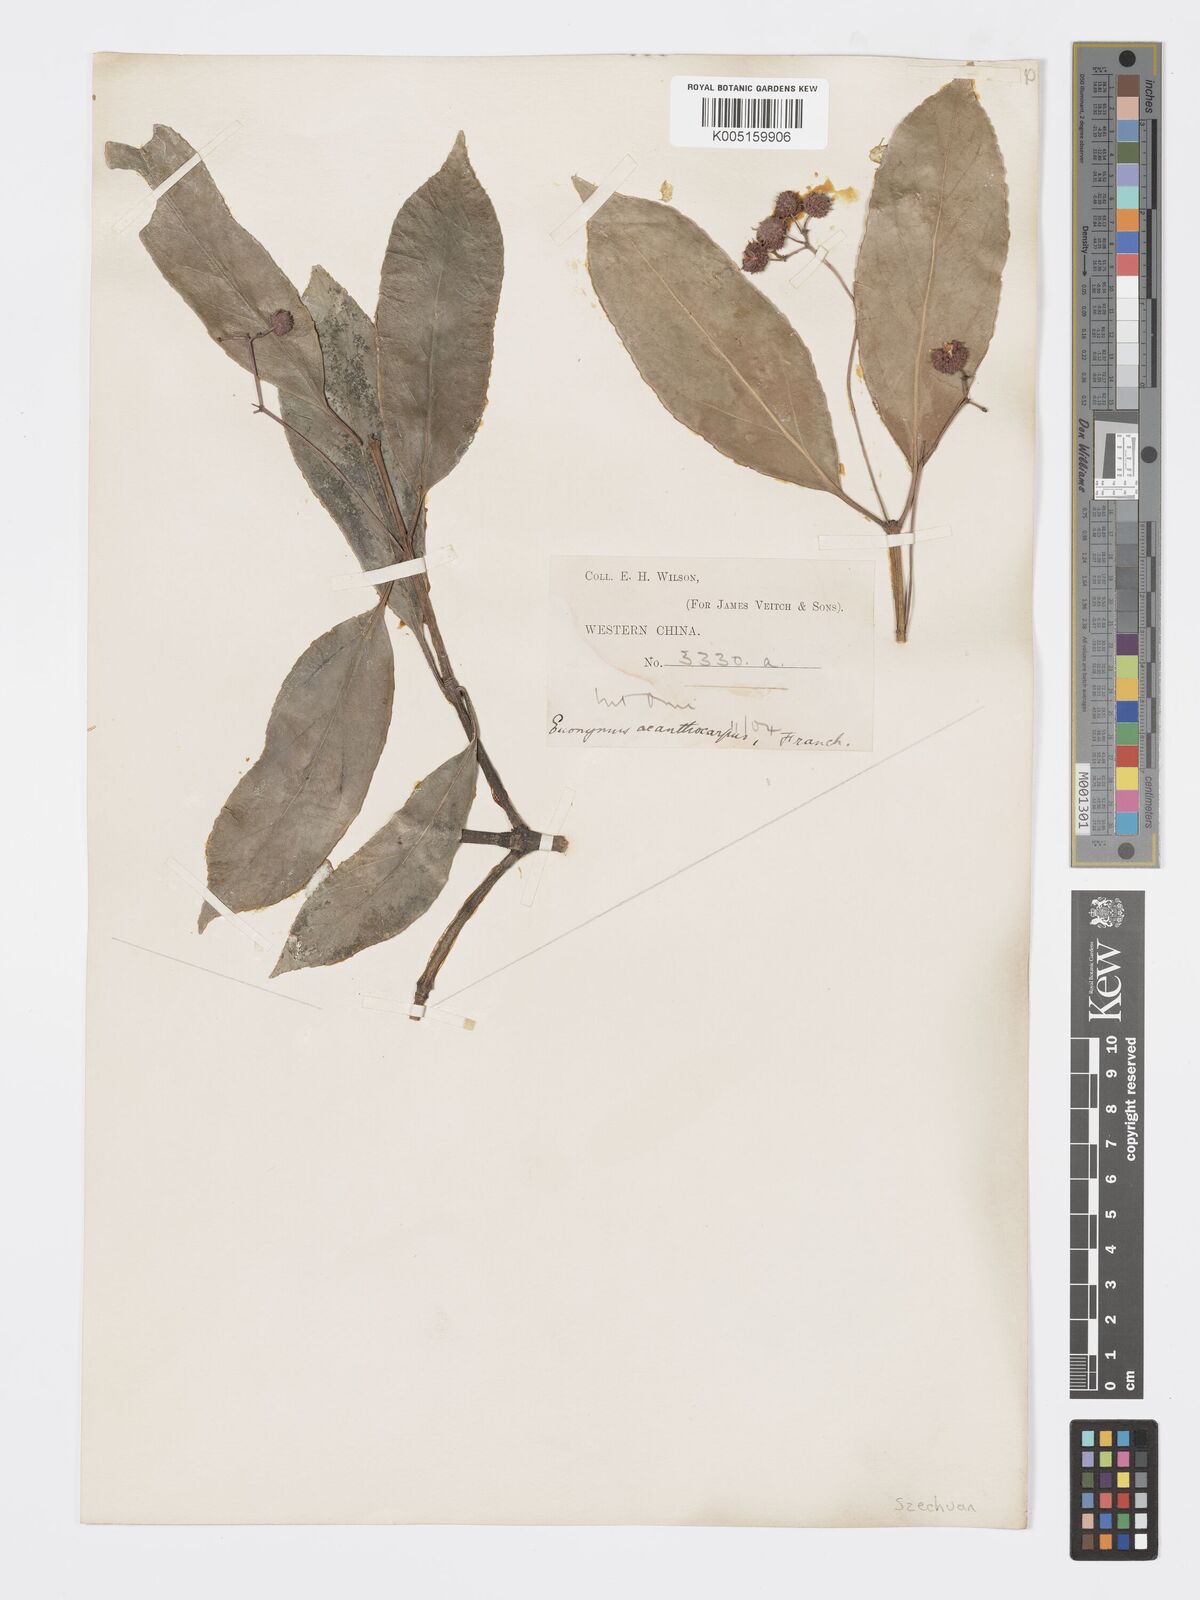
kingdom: Plantae
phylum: Tracheophyta
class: Magnoliopsida
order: Celastrales
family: Celastraceae
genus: Euonymus
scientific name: Euonymus acanthocarpus
